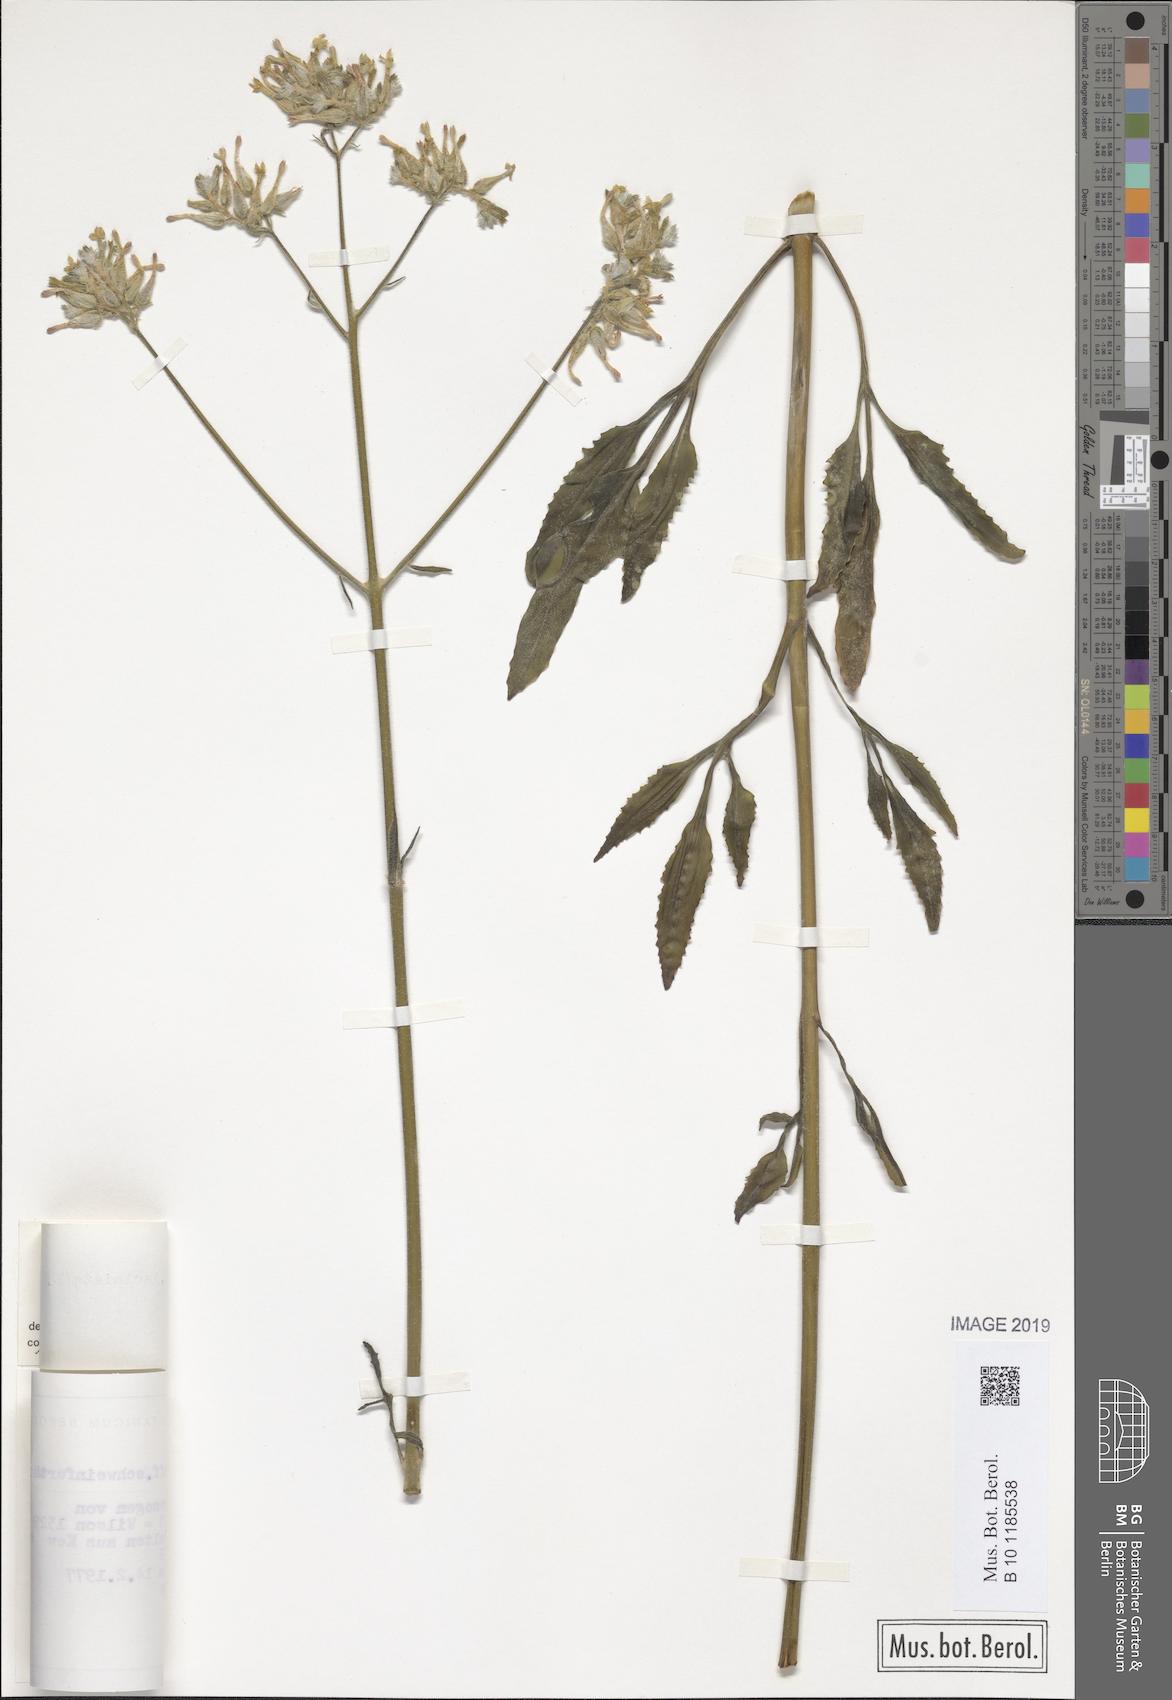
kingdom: Plantae
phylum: Tracheophyta
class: Magnoliopsida
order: Saxifragales
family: Crassulaceae
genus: Kalanchoe
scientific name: Kalanchoe laciniata
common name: Christmastree plant
